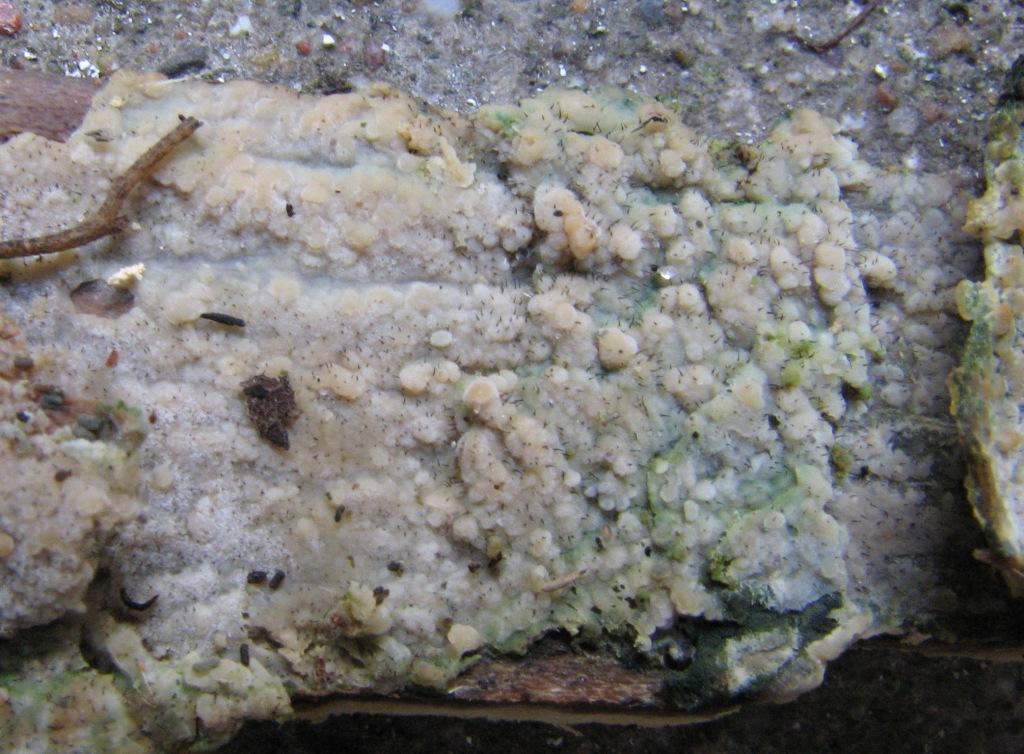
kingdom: Fungi
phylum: Basidiomycota
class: Agaricomycetes
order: Polyporales
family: Meruliaceae
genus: Cytidiella
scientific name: Cytidiella albida
